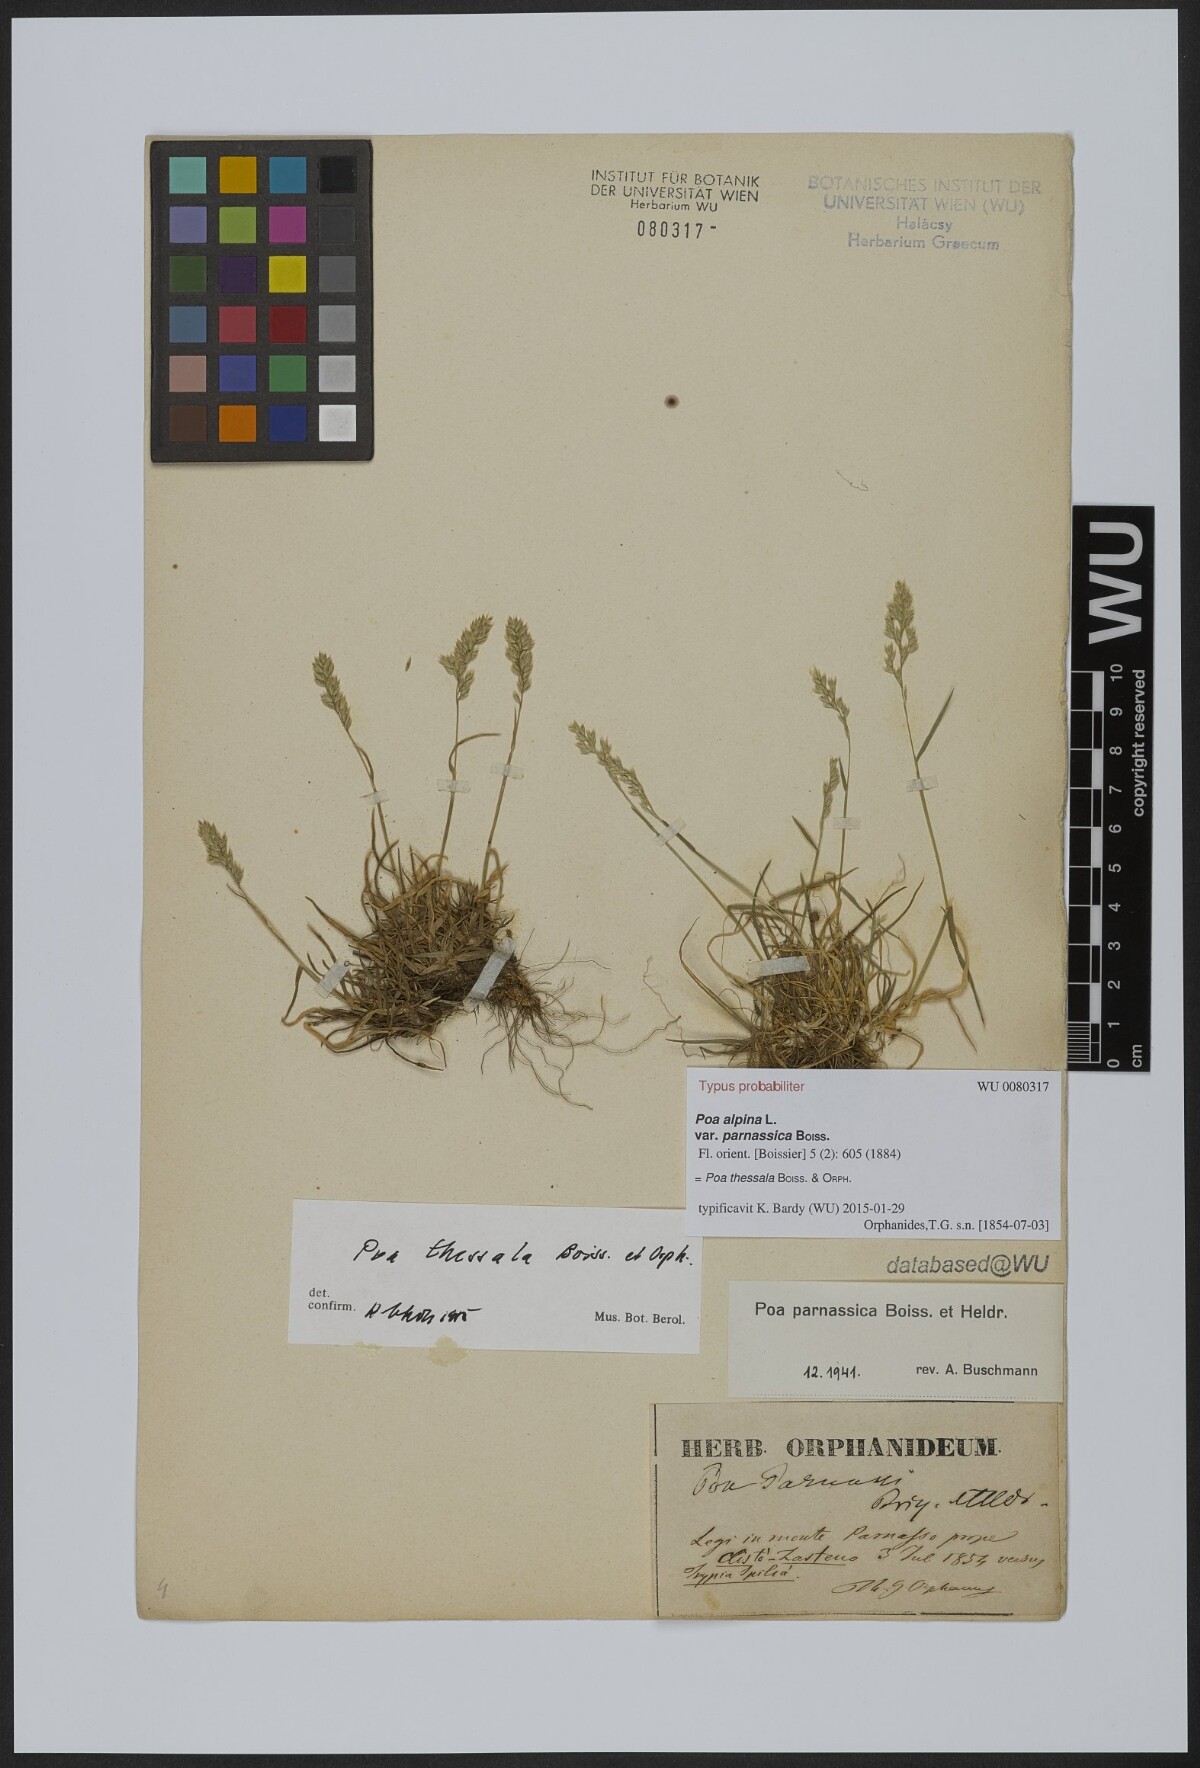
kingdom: Plantae
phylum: Tracheophyta
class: Liliopsida
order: Poales
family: Poaceae
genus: Poa
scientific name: Poa pumila
